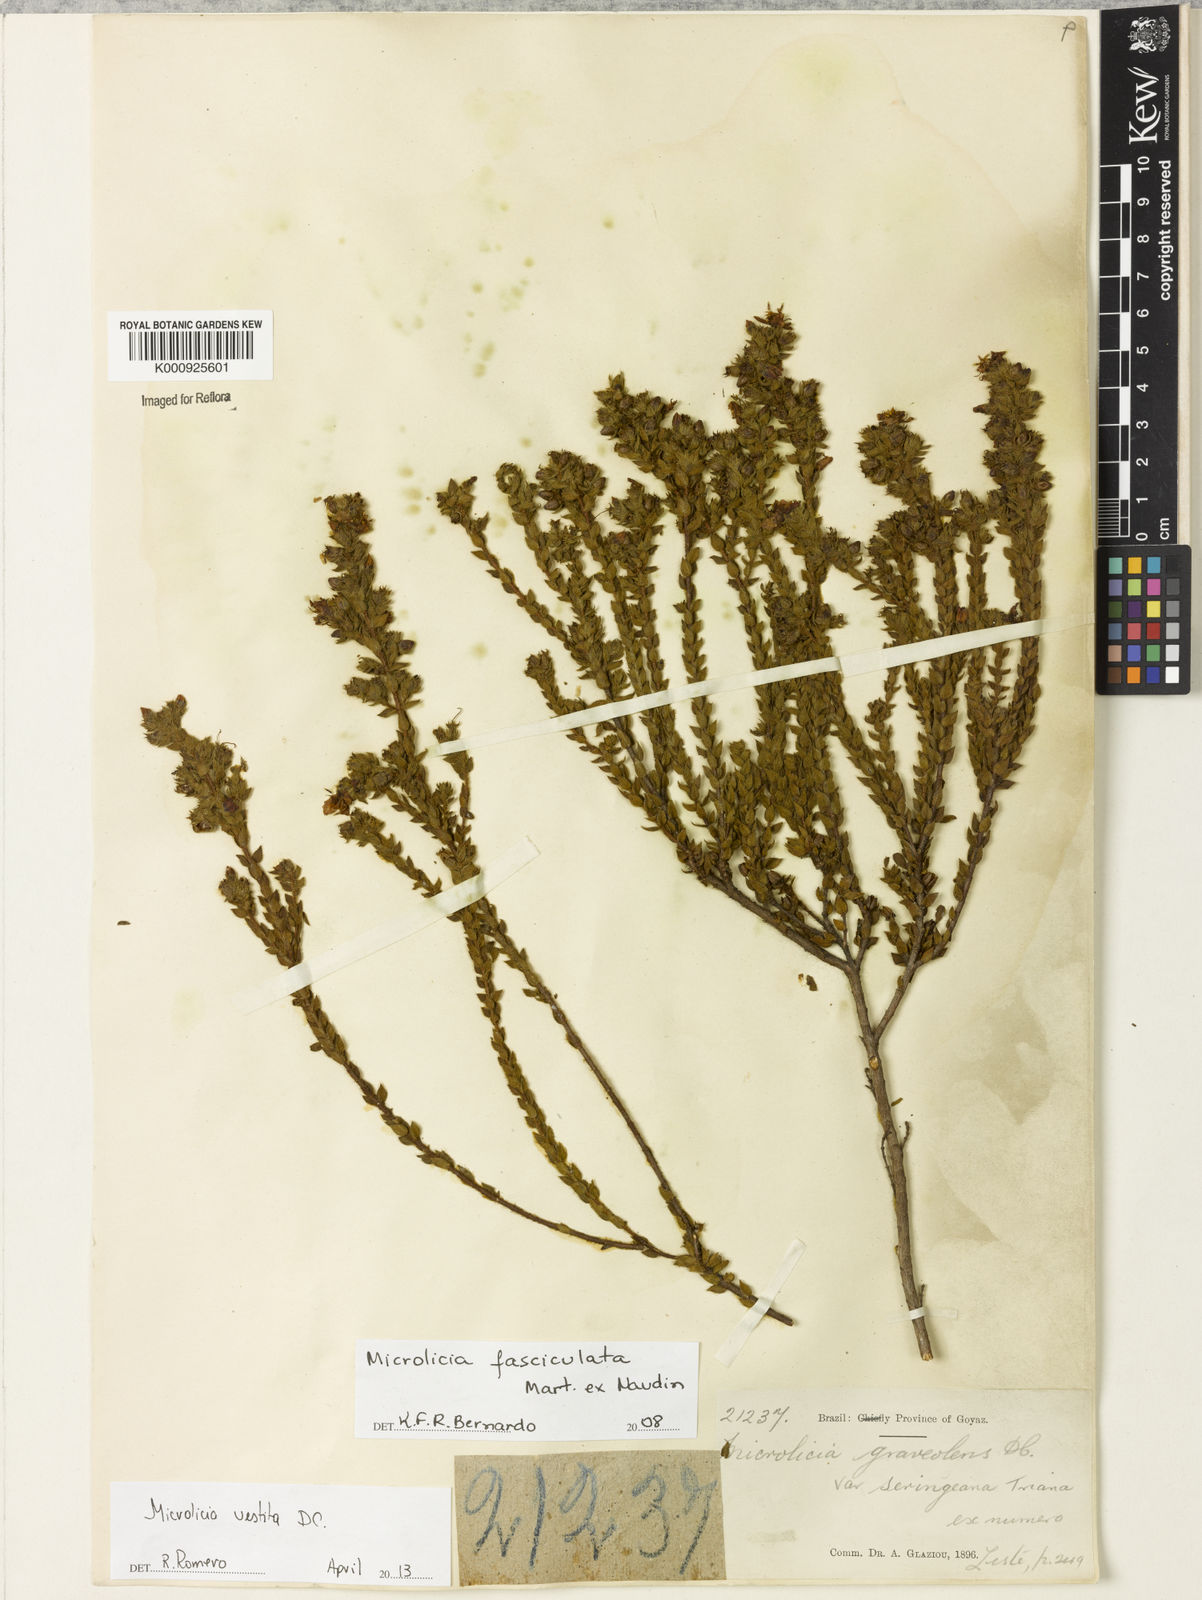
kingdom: Plantae
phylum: Tracheophyta
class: Magnoliopsida
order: Myrtales
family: Melastomataceae
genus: Microlicia
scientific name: Microlicia vestita
